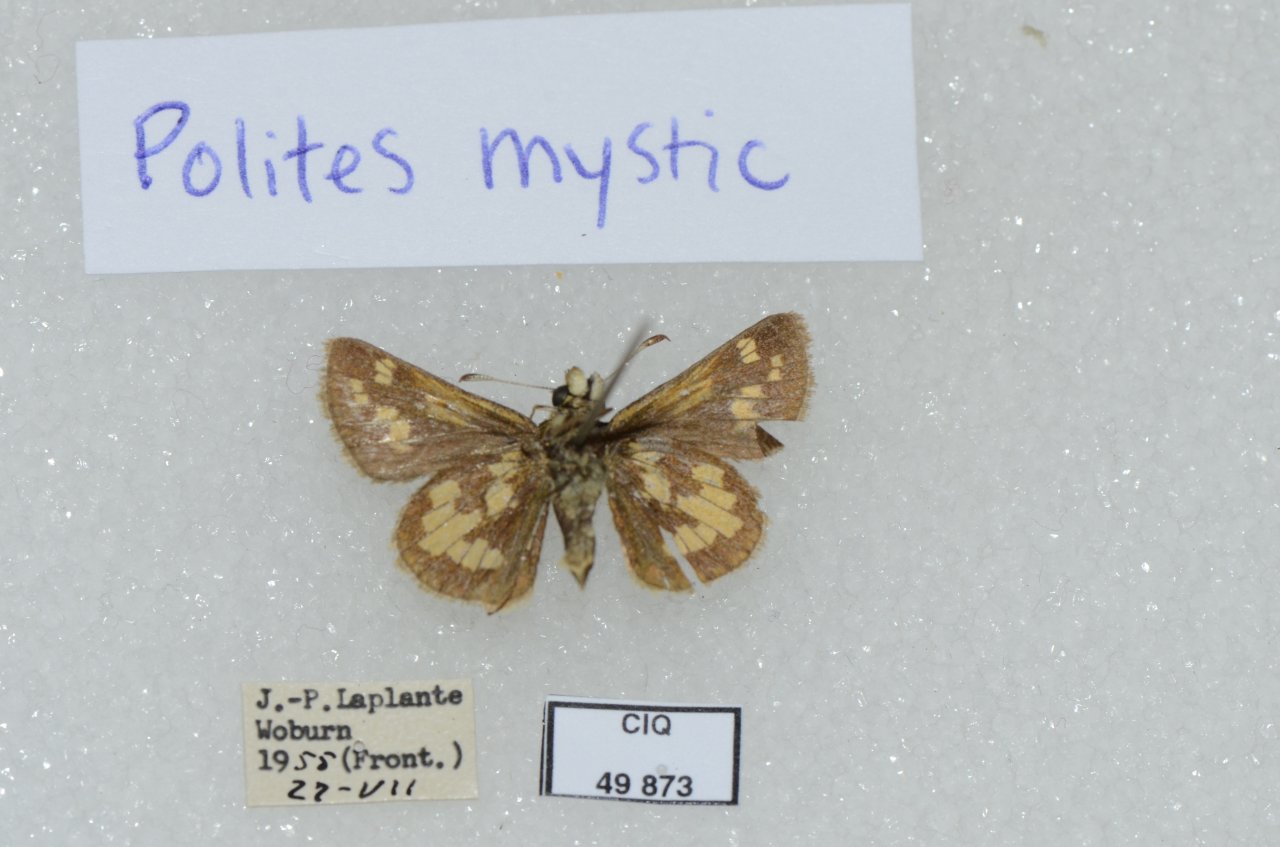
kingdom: Animalia
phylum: Arthropoda
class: Insecta
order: Lepidoptera
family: Hesperiidae
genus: Polites
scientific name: Polites
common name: Long Dash Skipper
